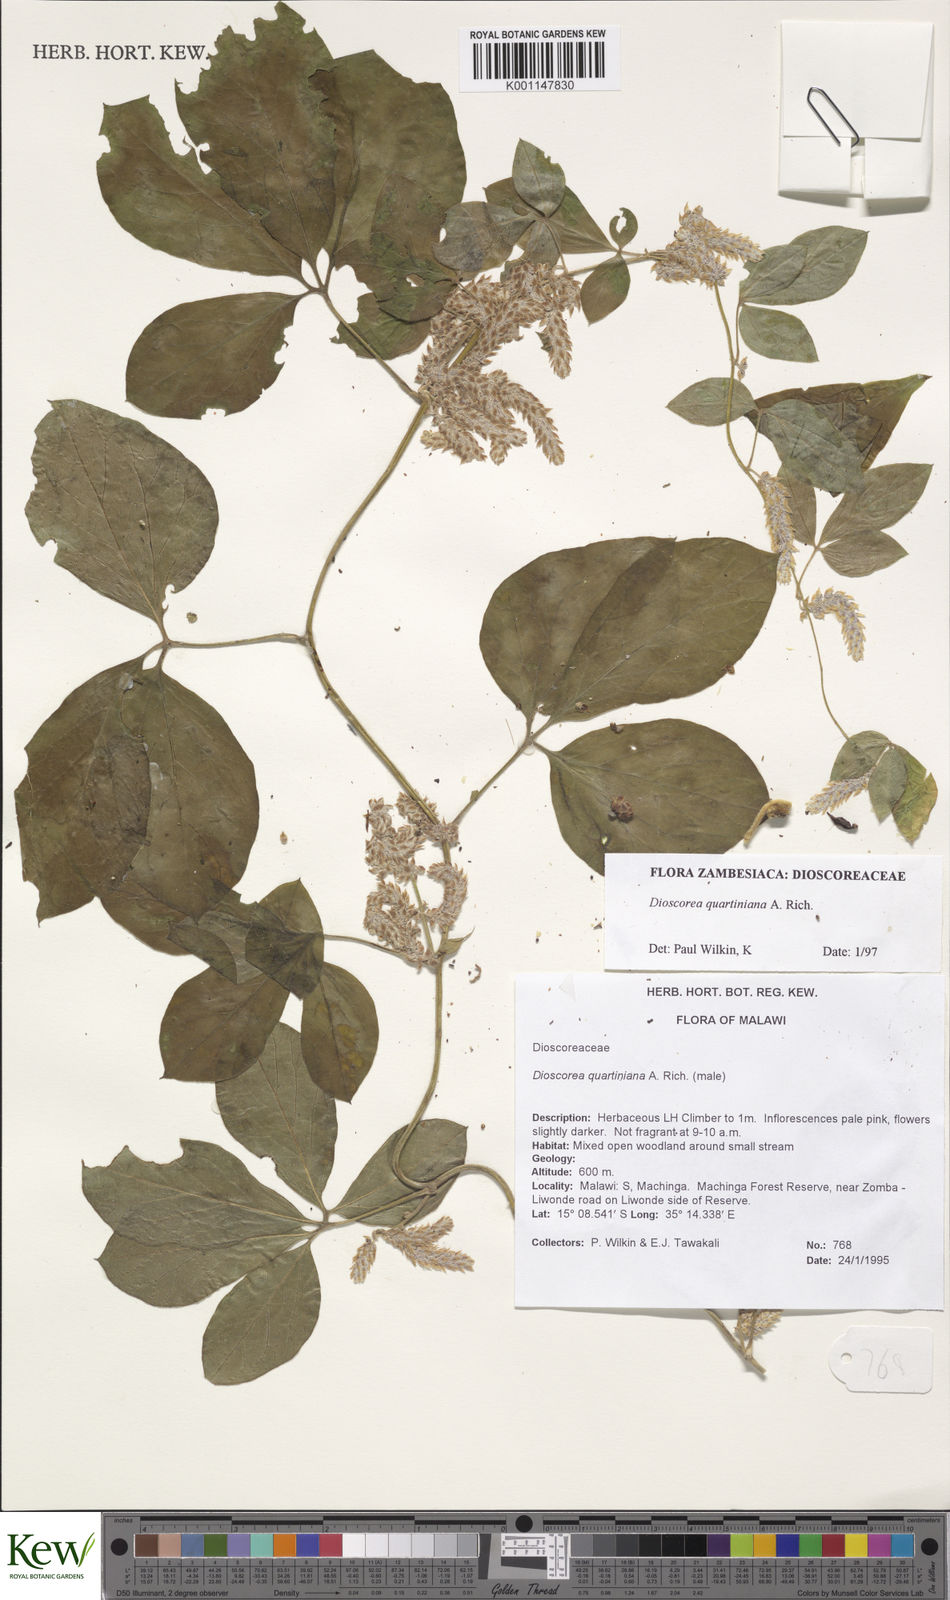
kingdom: Plantae
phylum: Tracheophyta
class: Liliopsida
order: Dioscoreales
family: Dioscoreaceae
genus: Dioscorea
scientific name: Dioscorea quartiniana
